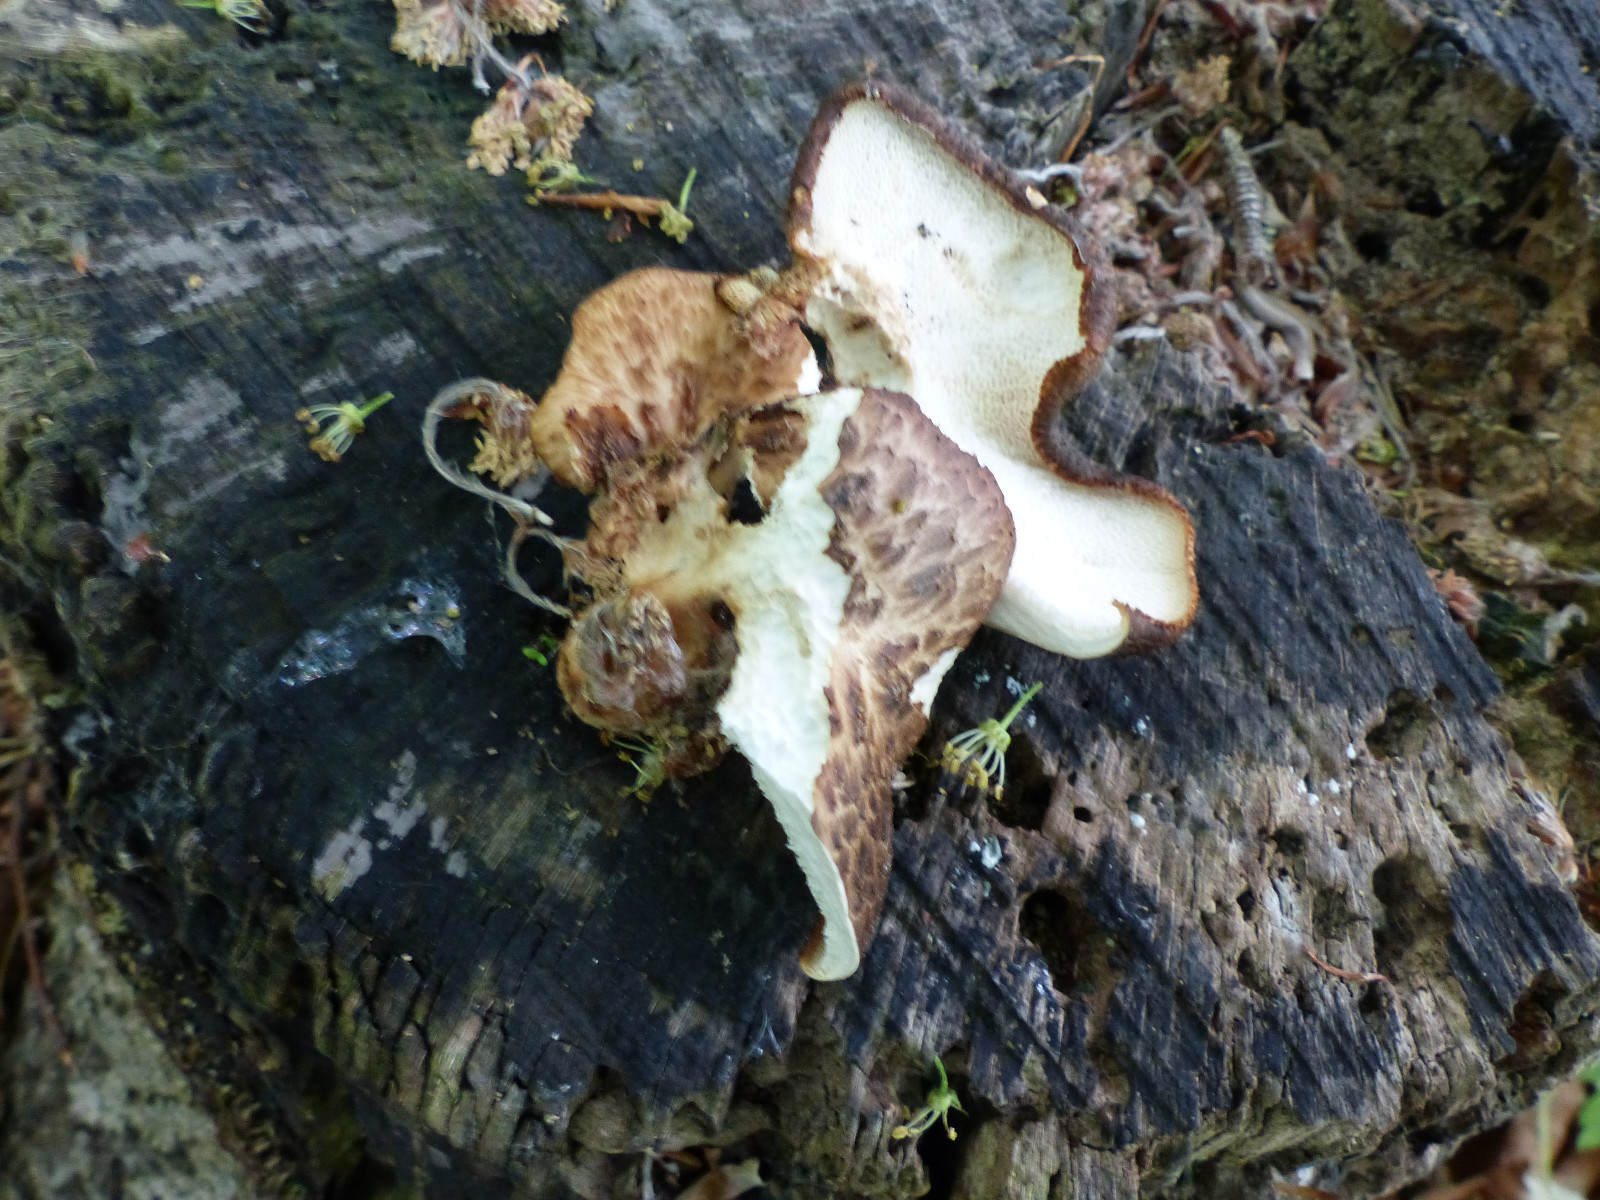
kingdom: Fungi
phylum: Basidiomycota
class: Agaricomycetes
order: Polyporales
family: Polyporaceae
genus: Cerioporus
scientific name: Cerioporus squamosus
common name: skællet stilkporesvamp
